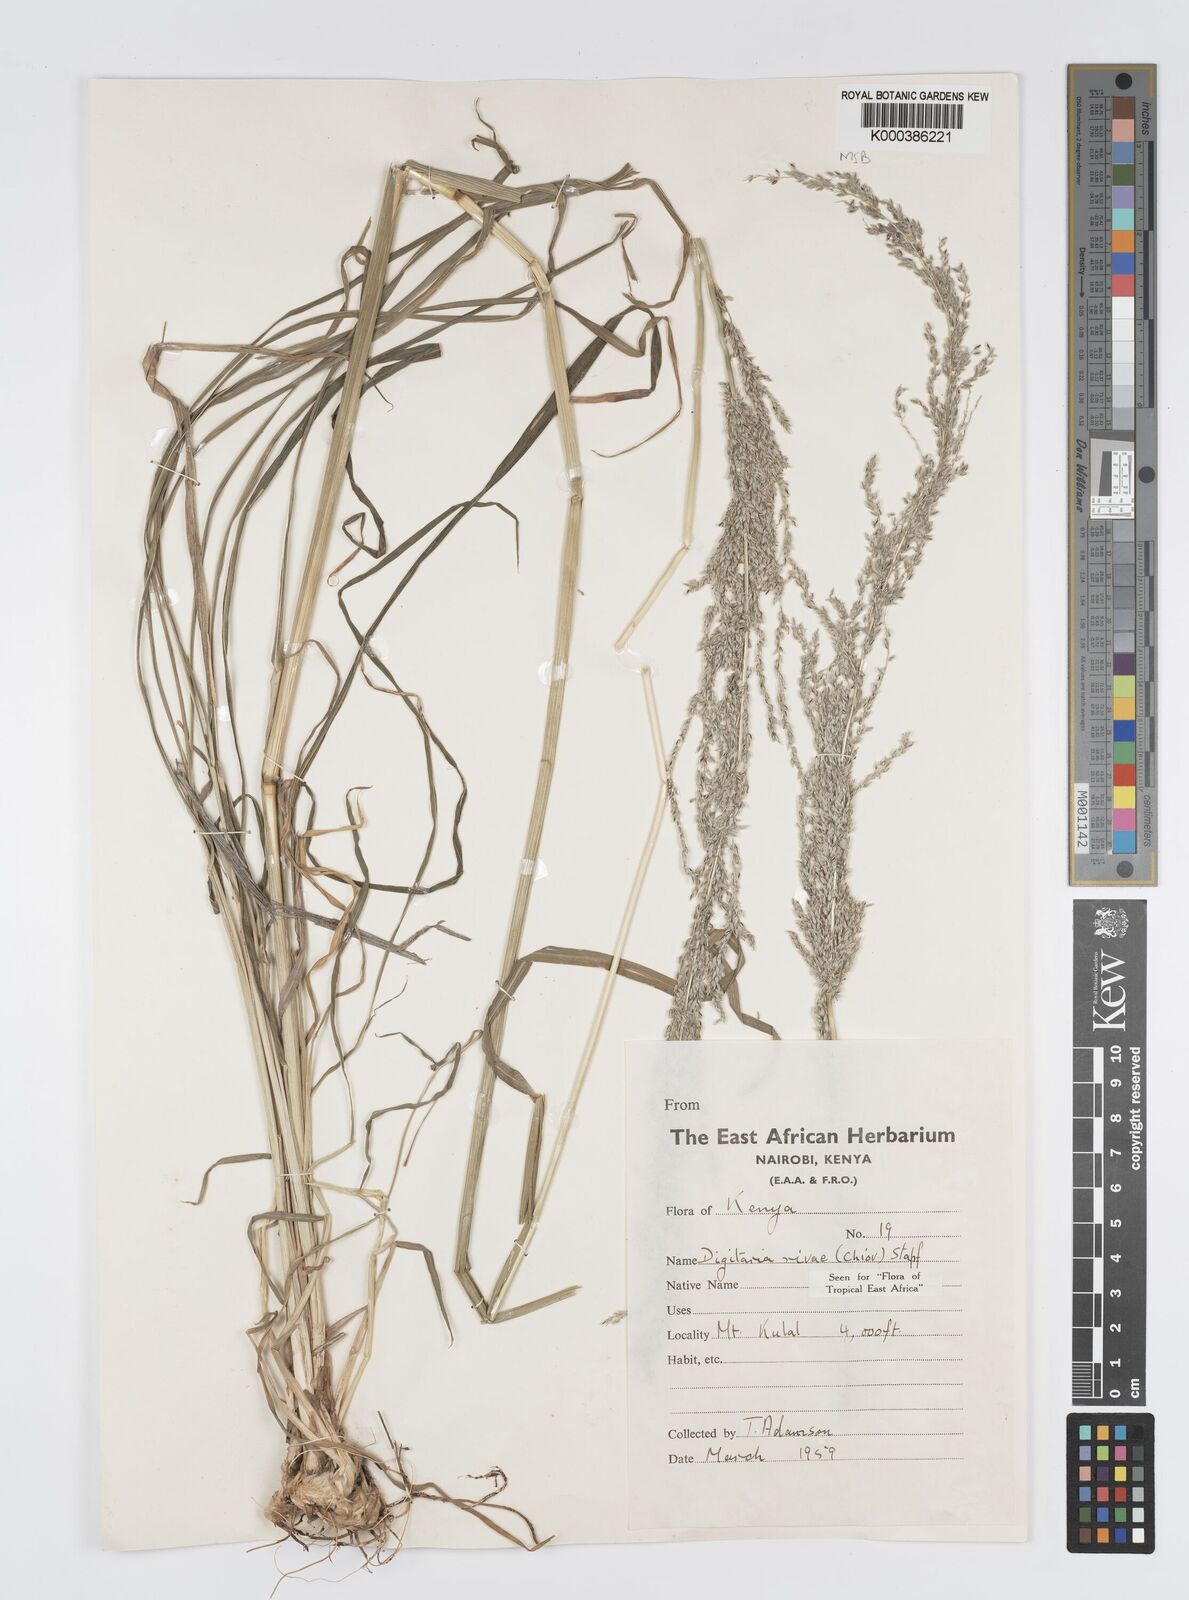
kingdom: Plantae
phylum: Tracheophyta
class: Liliopsida
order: Poales
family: Poaceae
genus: Digitaria
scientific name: Digitaria rivae
